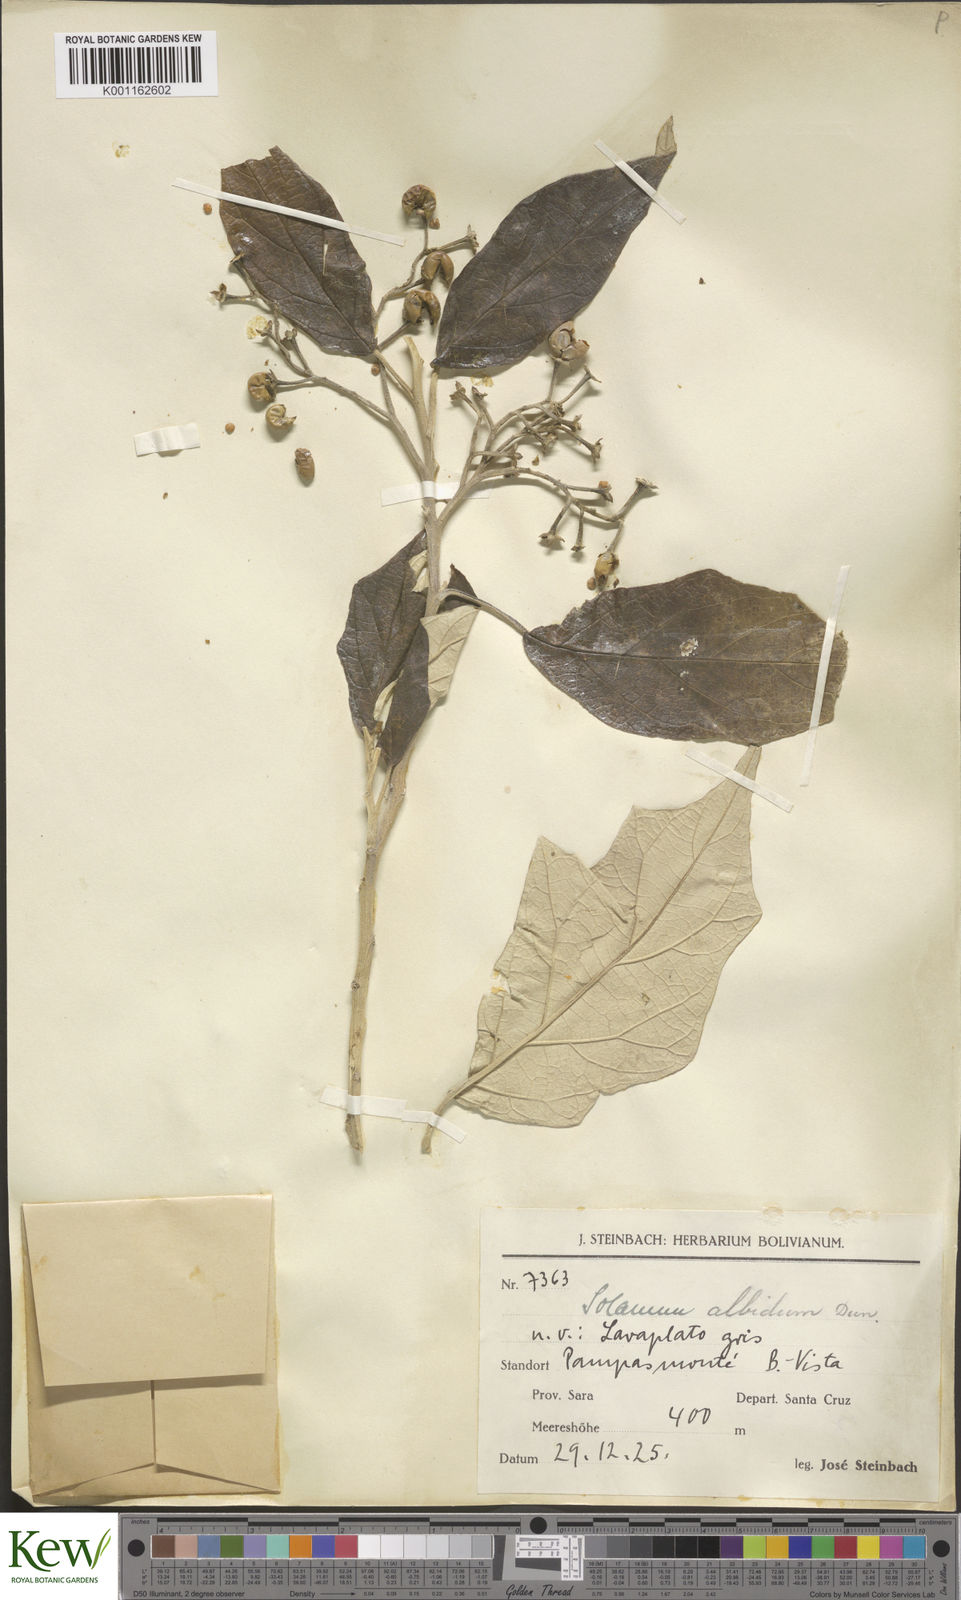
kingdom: Plantae
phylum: Tracheophyta
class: Magnoliopsida
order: Solanales
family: Solanaceae
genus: Solanum
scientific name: Solanum albidum
